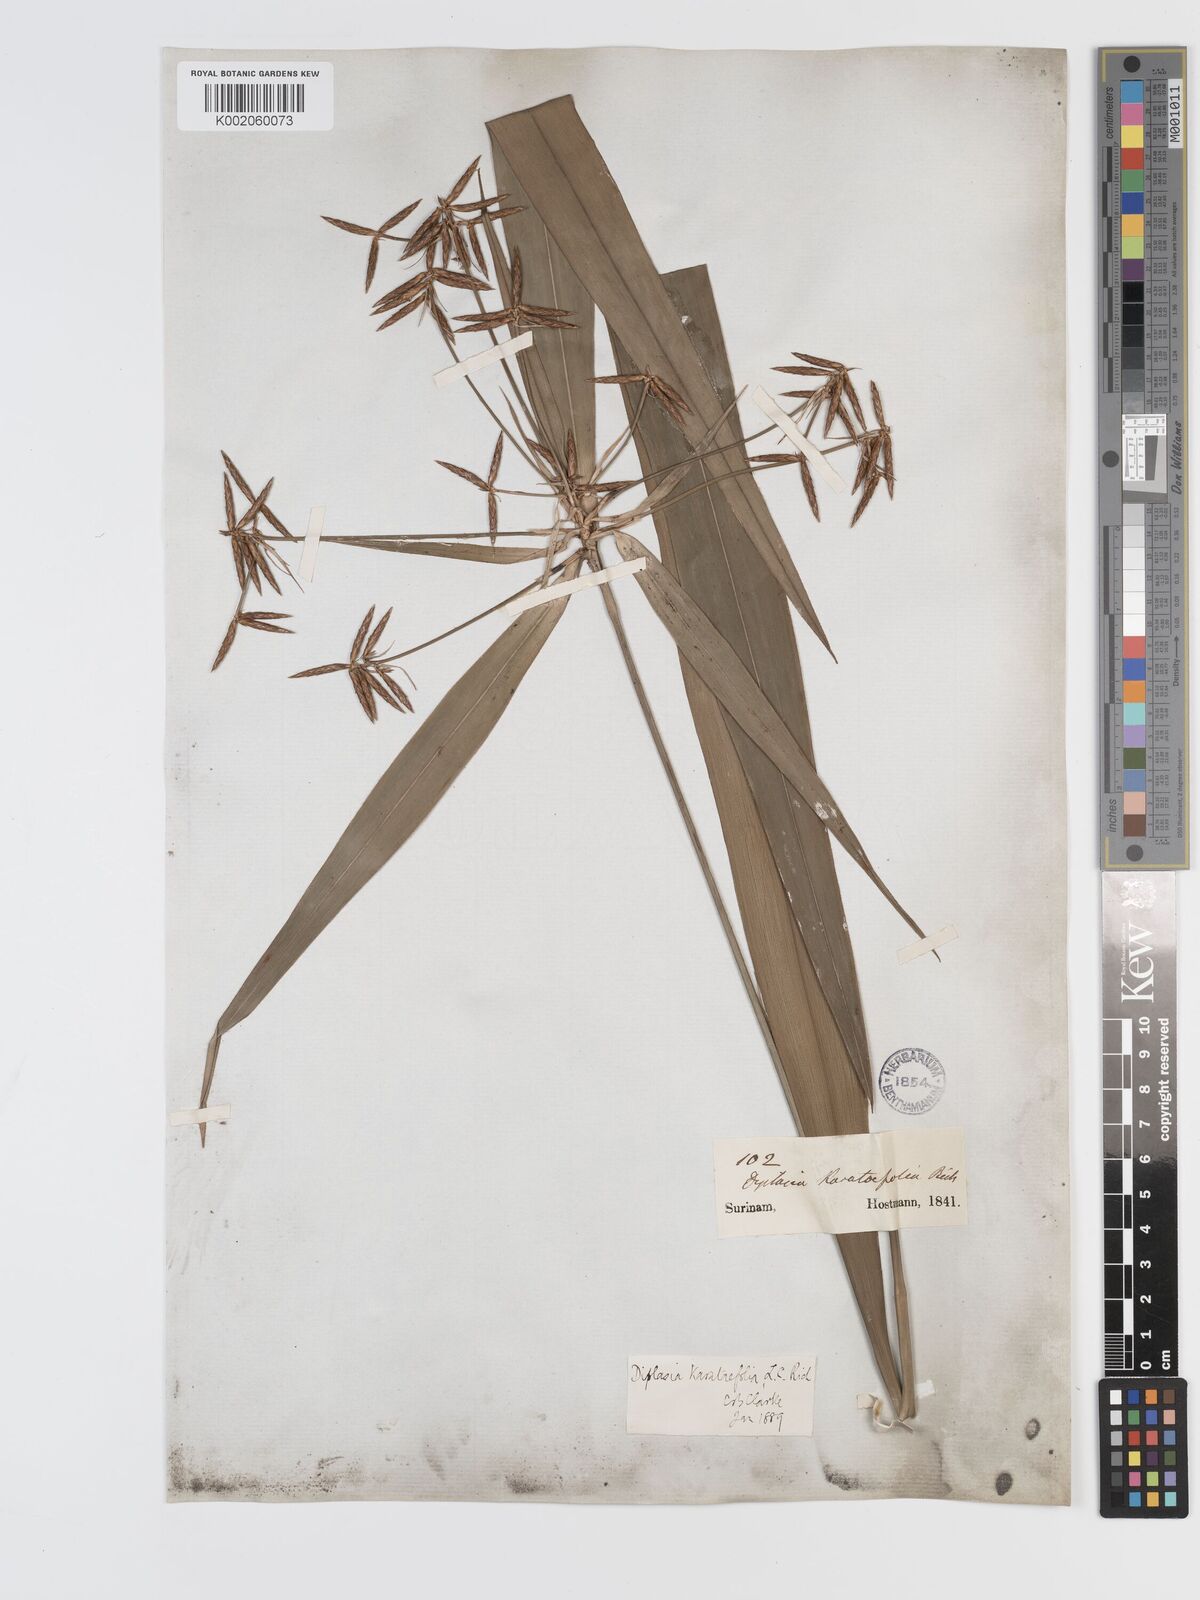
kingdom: Plantae
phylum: Tracheophyta
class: Liliopsida
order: Poales
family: Cyperaceae
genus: Diplasia
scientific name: Diplasia karatifolia
